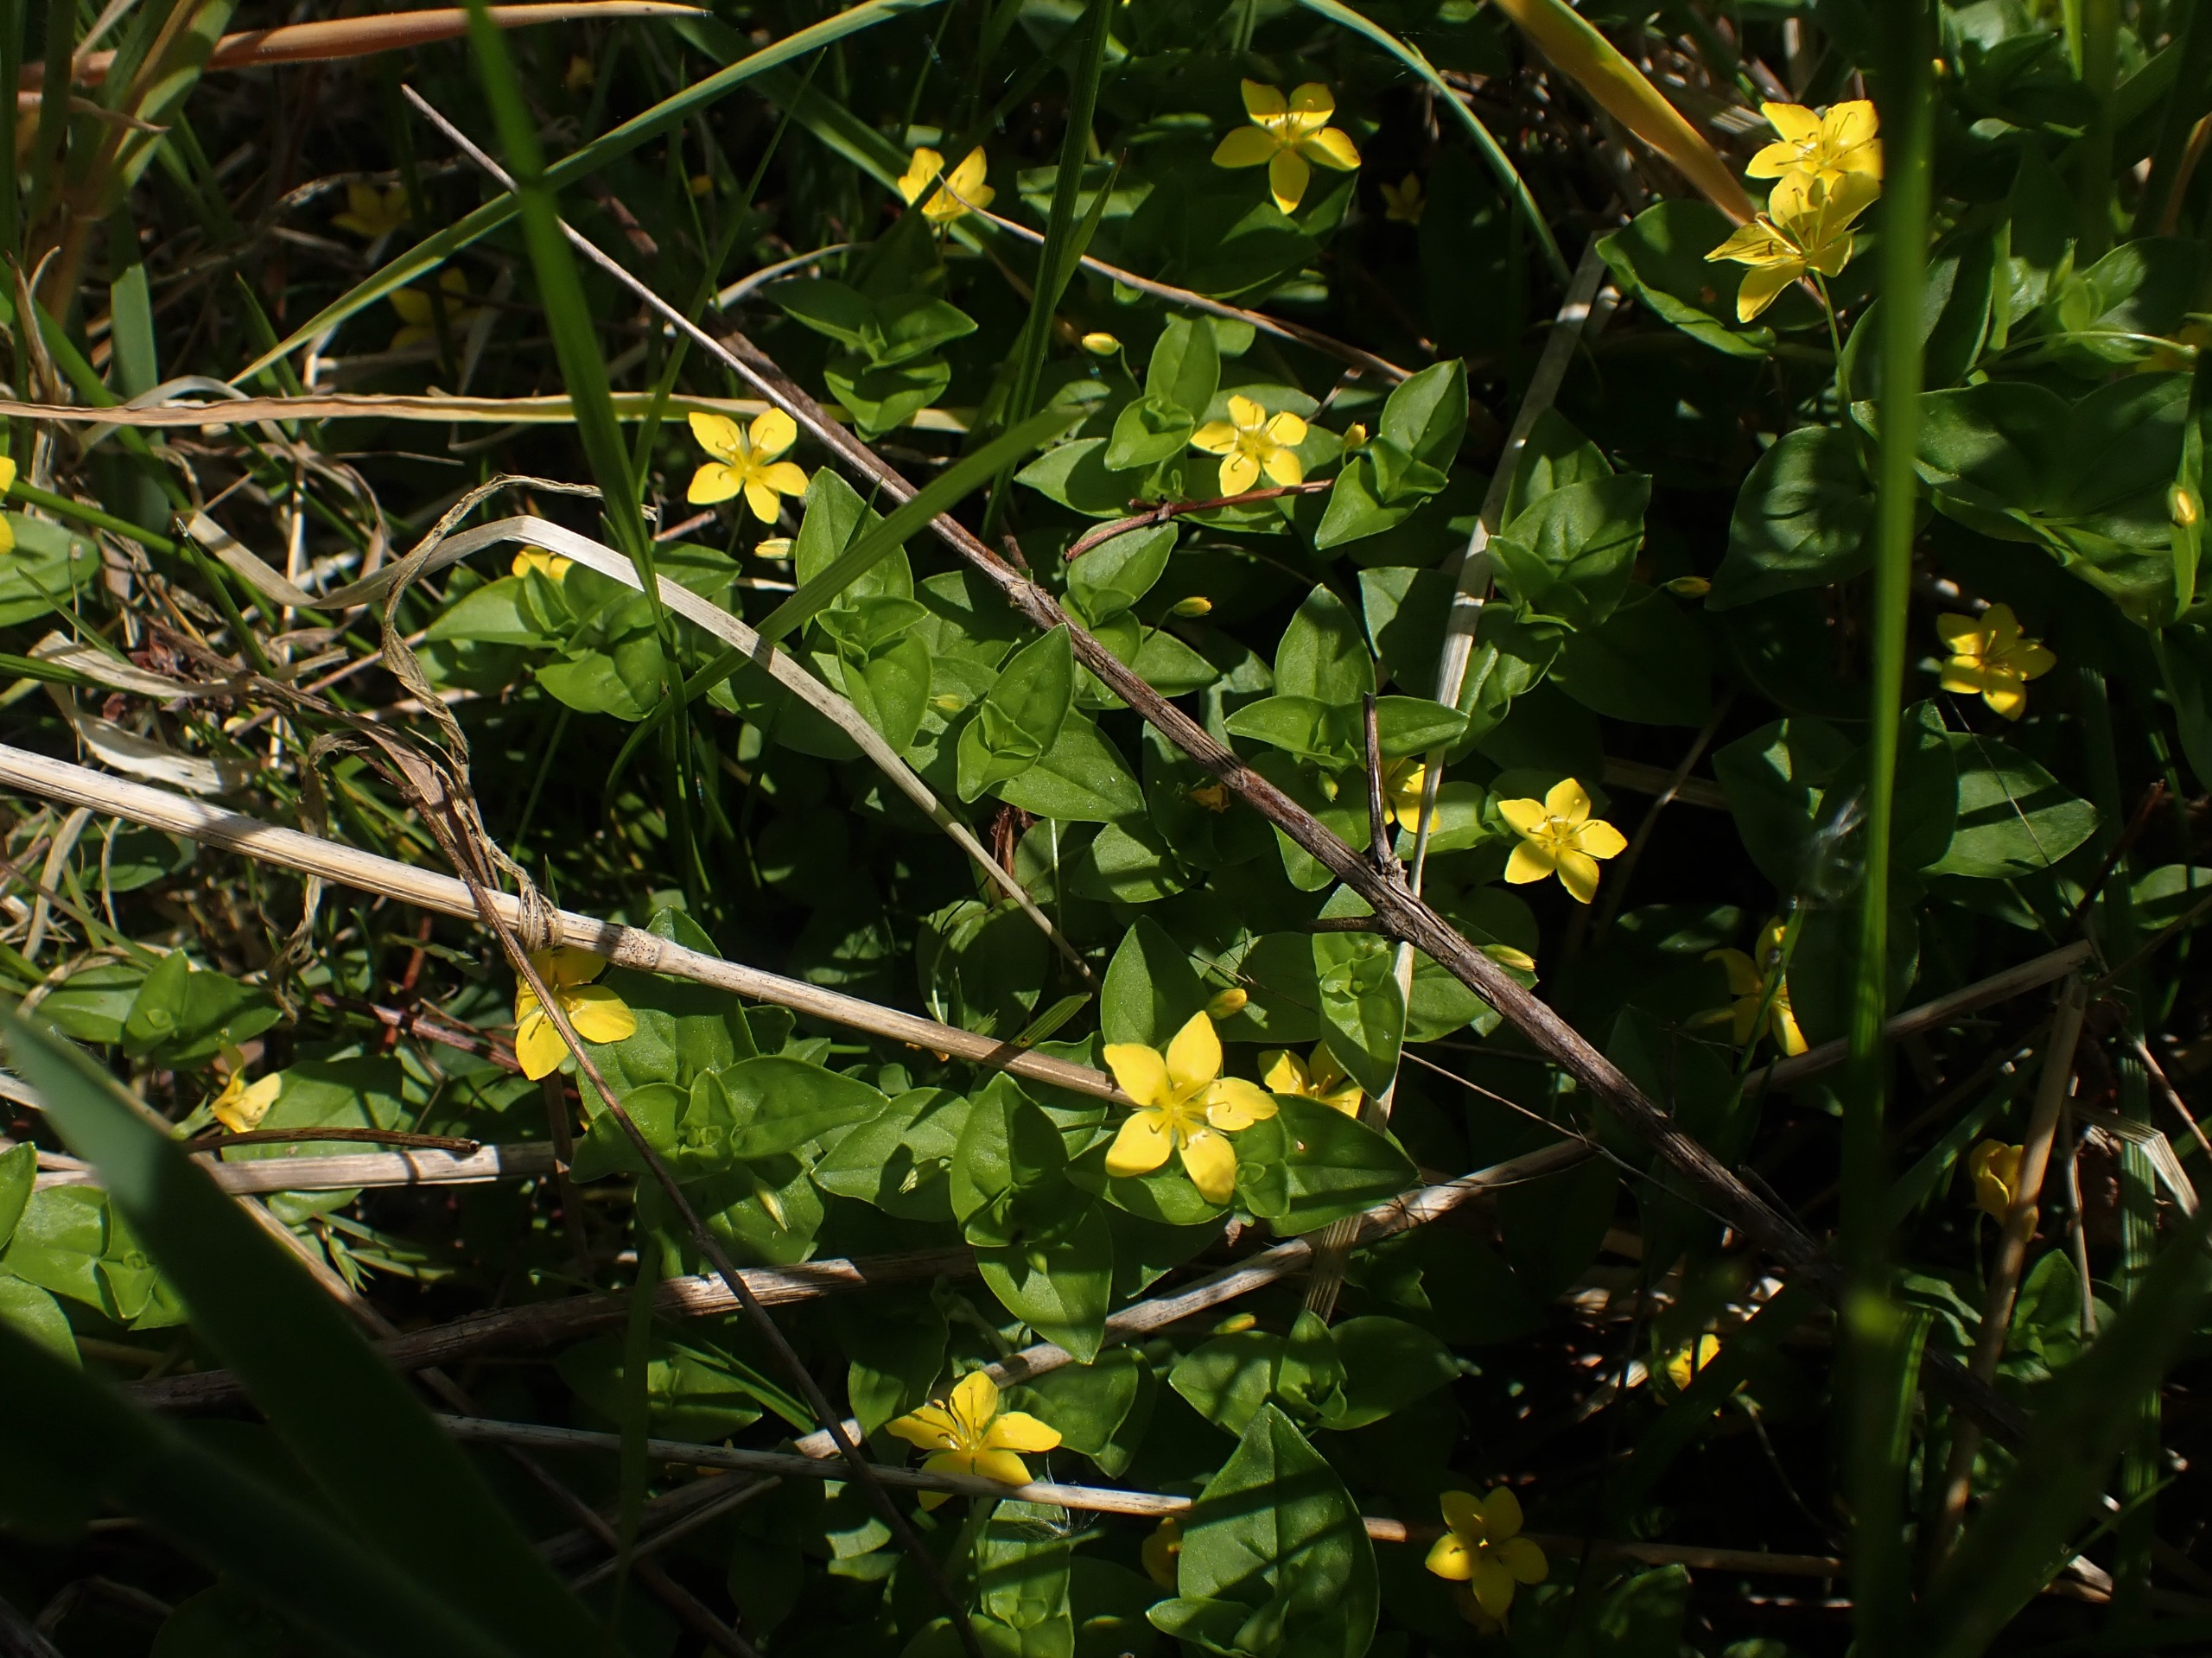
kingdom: Plantae
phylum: Tracheophyta
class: Magnoliopsida
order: Ericales
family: Primulaceae
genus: Lysimachia
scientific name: Lysimachia nemorum
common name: Lund-fredløs
